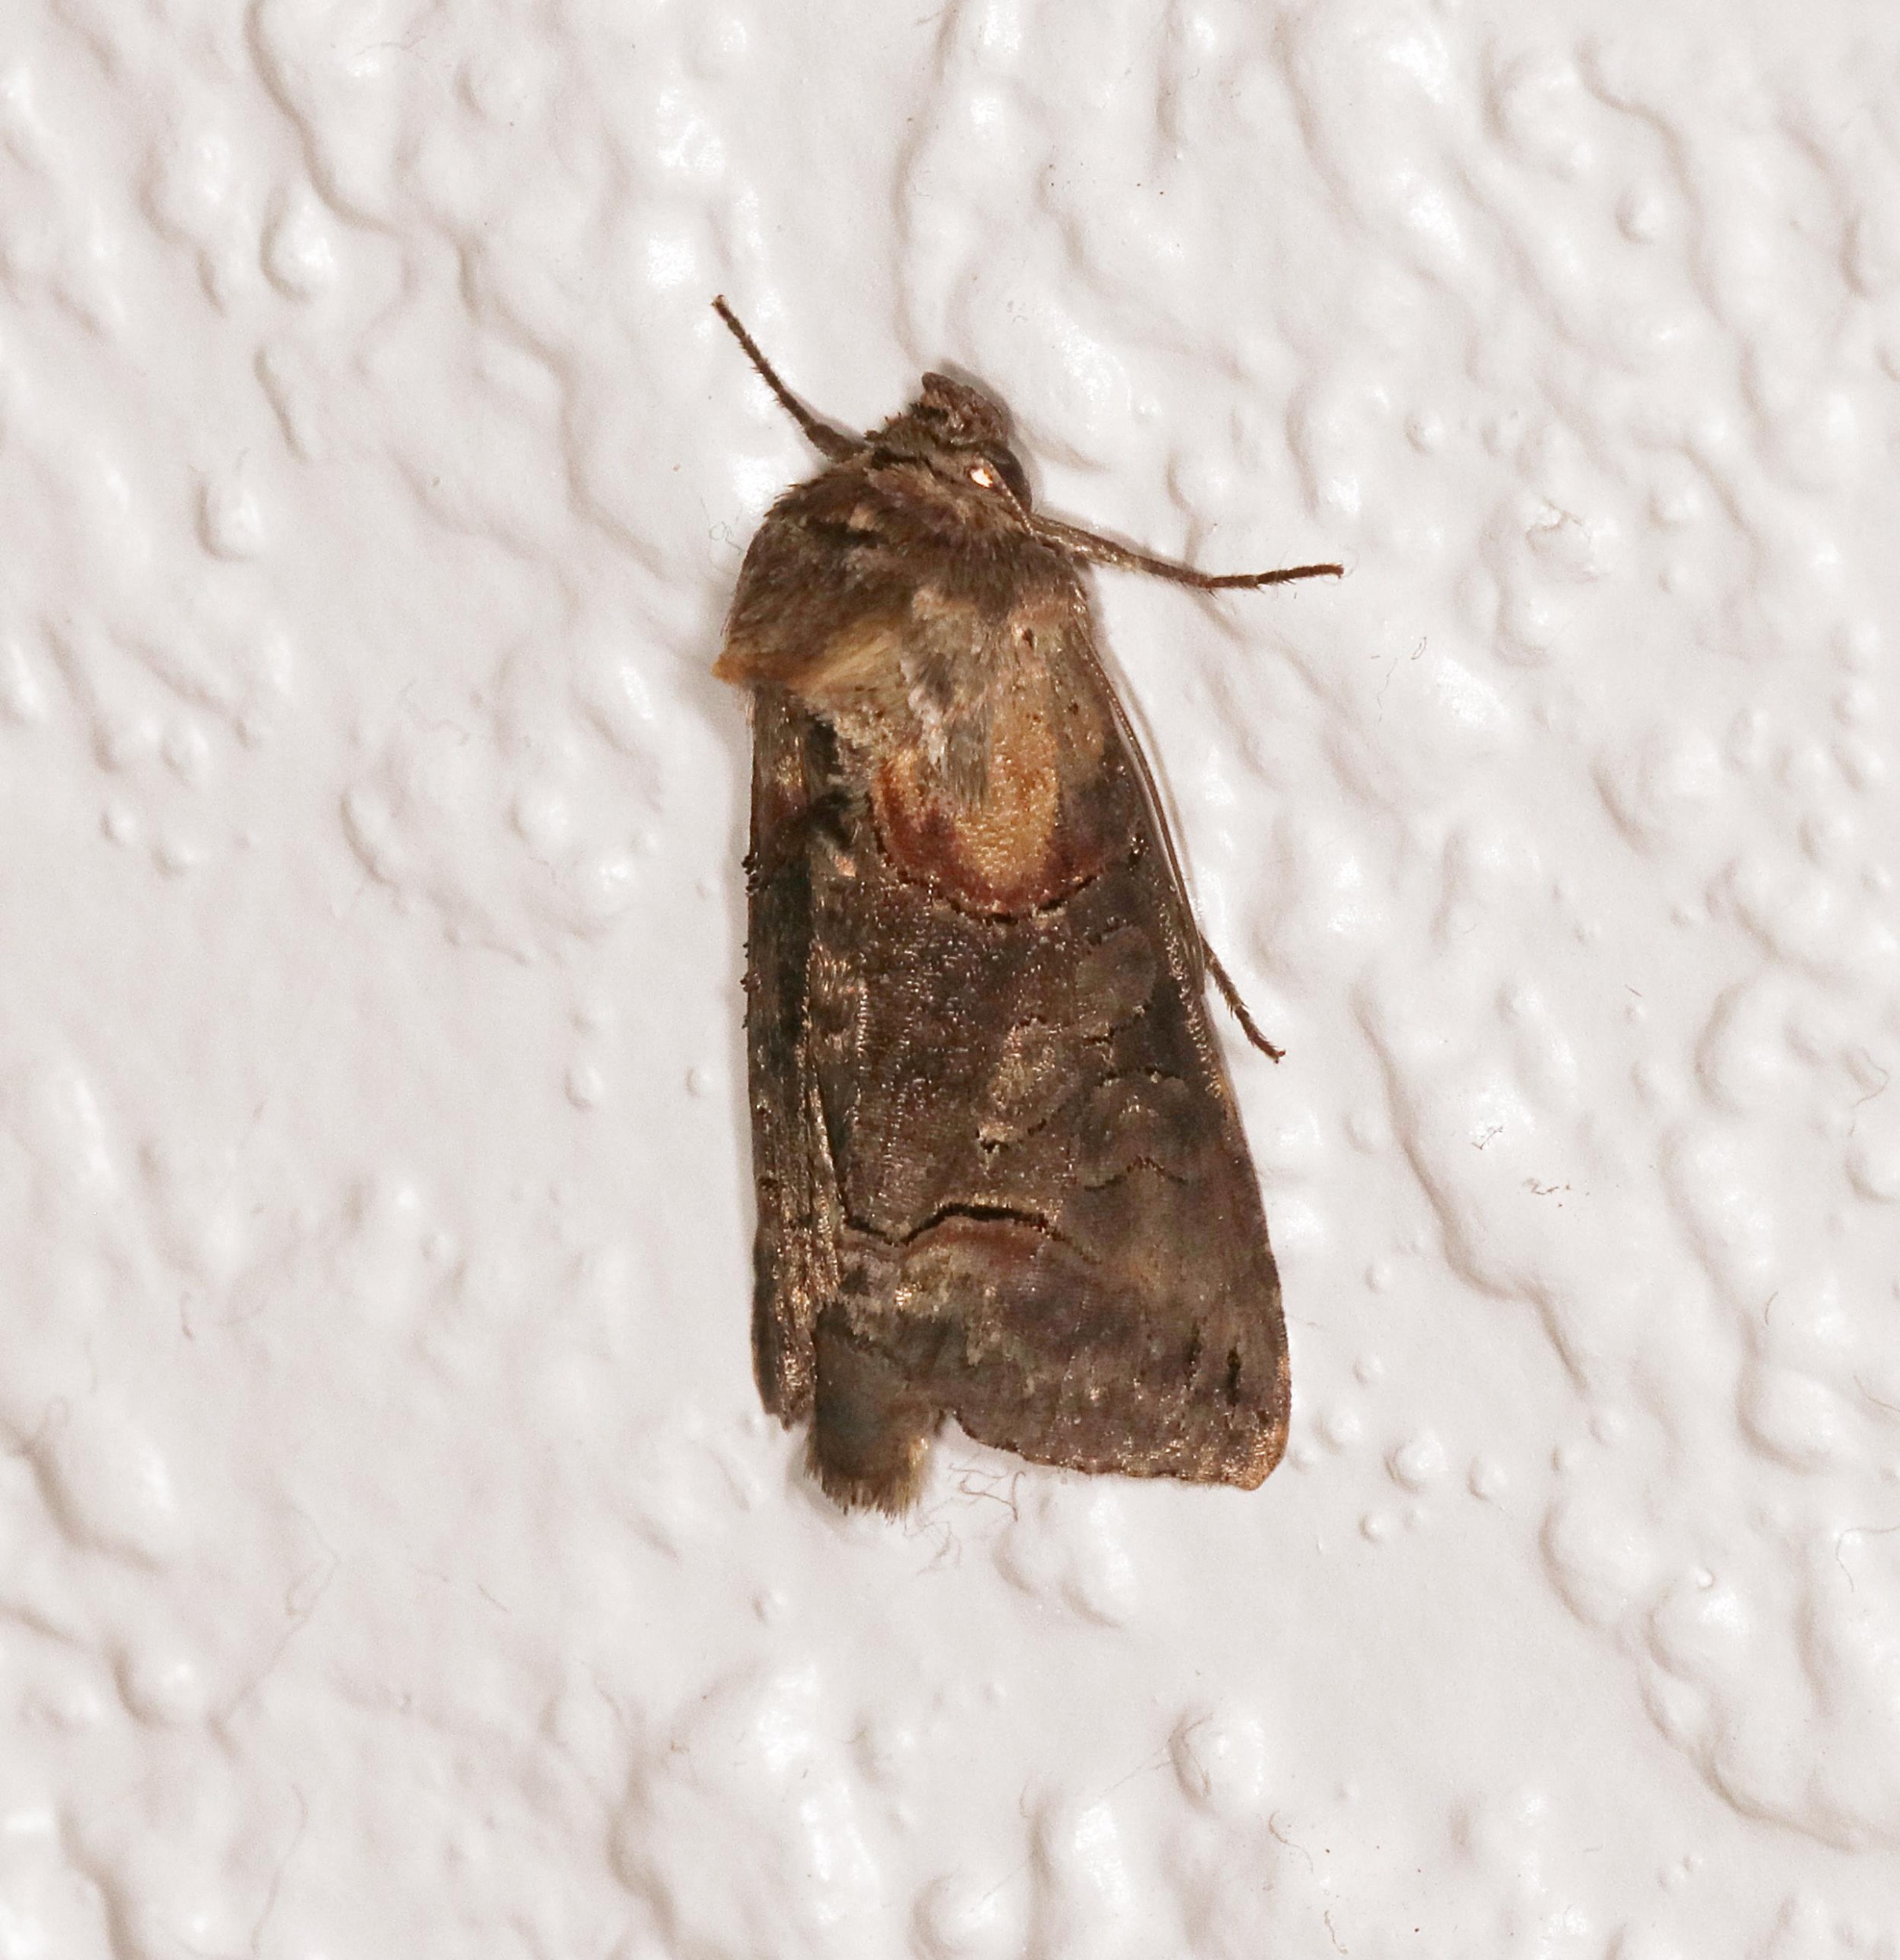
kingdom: Animalia
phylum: Arthropoda
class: Insecta
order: Lepidoptera
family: Noctuidae
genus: Abrostola
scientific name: Abrostola triplasia
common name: Brun nælde-brilleugle
